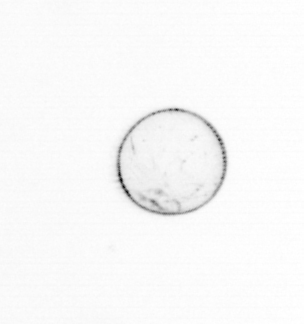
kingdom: Chromista
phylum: Myzozoa
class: Dinophyceae
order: Noctilucales
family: Noctilucaceae
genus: Noctiluca
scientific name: Noctiluca scintillans
